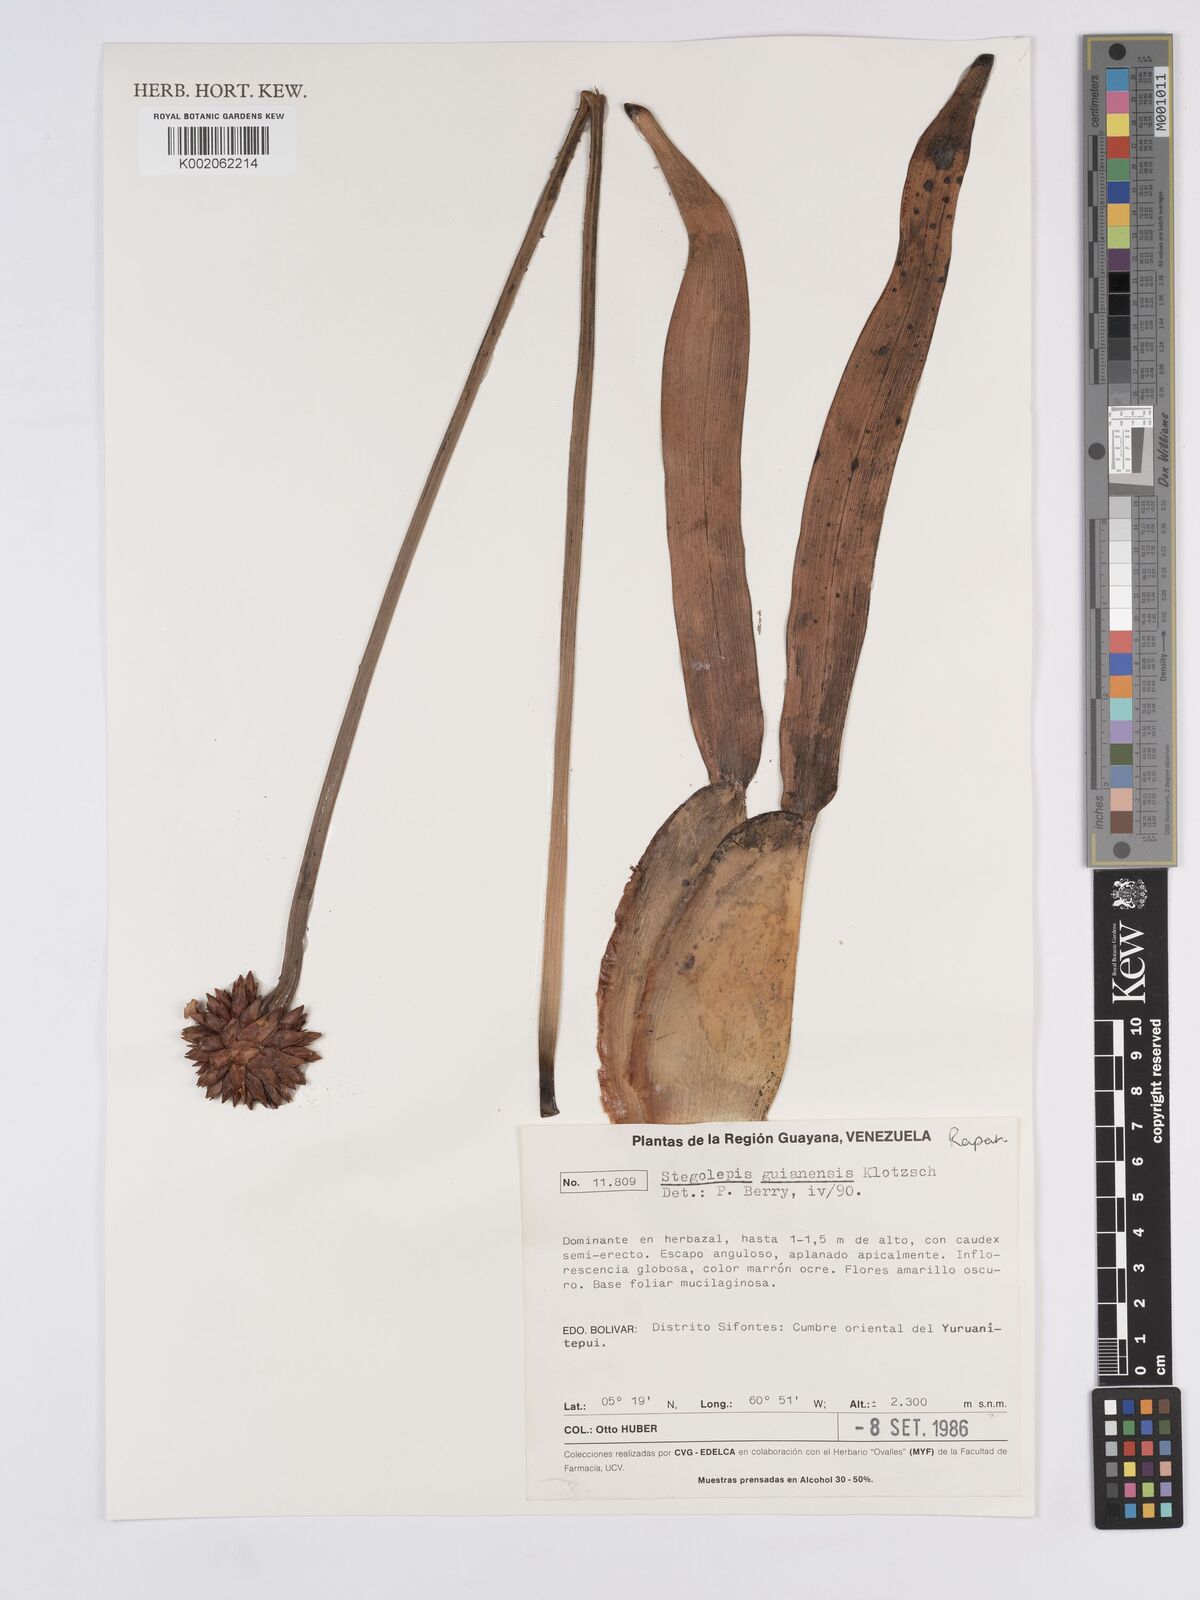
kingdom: Plantae
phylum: Tracheophyta
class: Liliopsida
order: Poales
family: Rapateaceae
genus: Stegolepis
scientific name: Stegolepis guianensis
